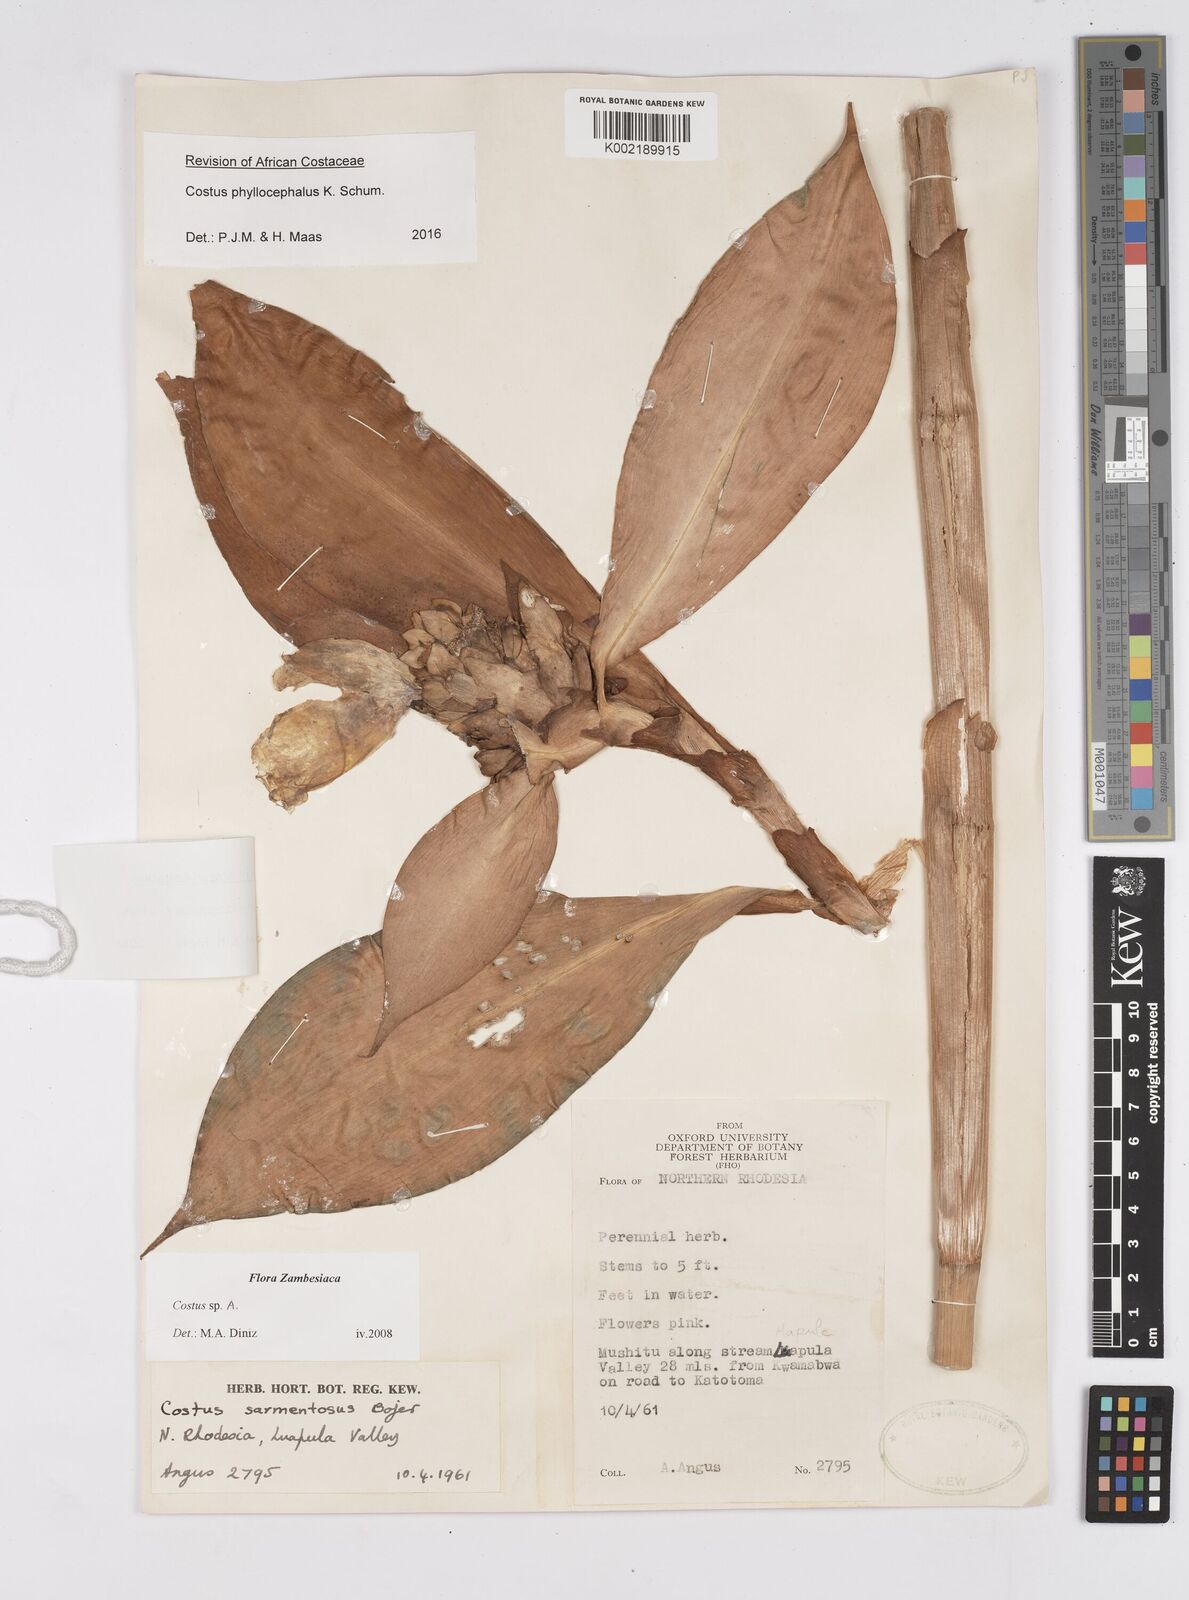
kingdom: Plantae
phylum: Tracheophyta
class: Liliopsida
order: Zingiberales
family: Costaceae
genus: Costus
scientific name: Costus phyllocephalus
